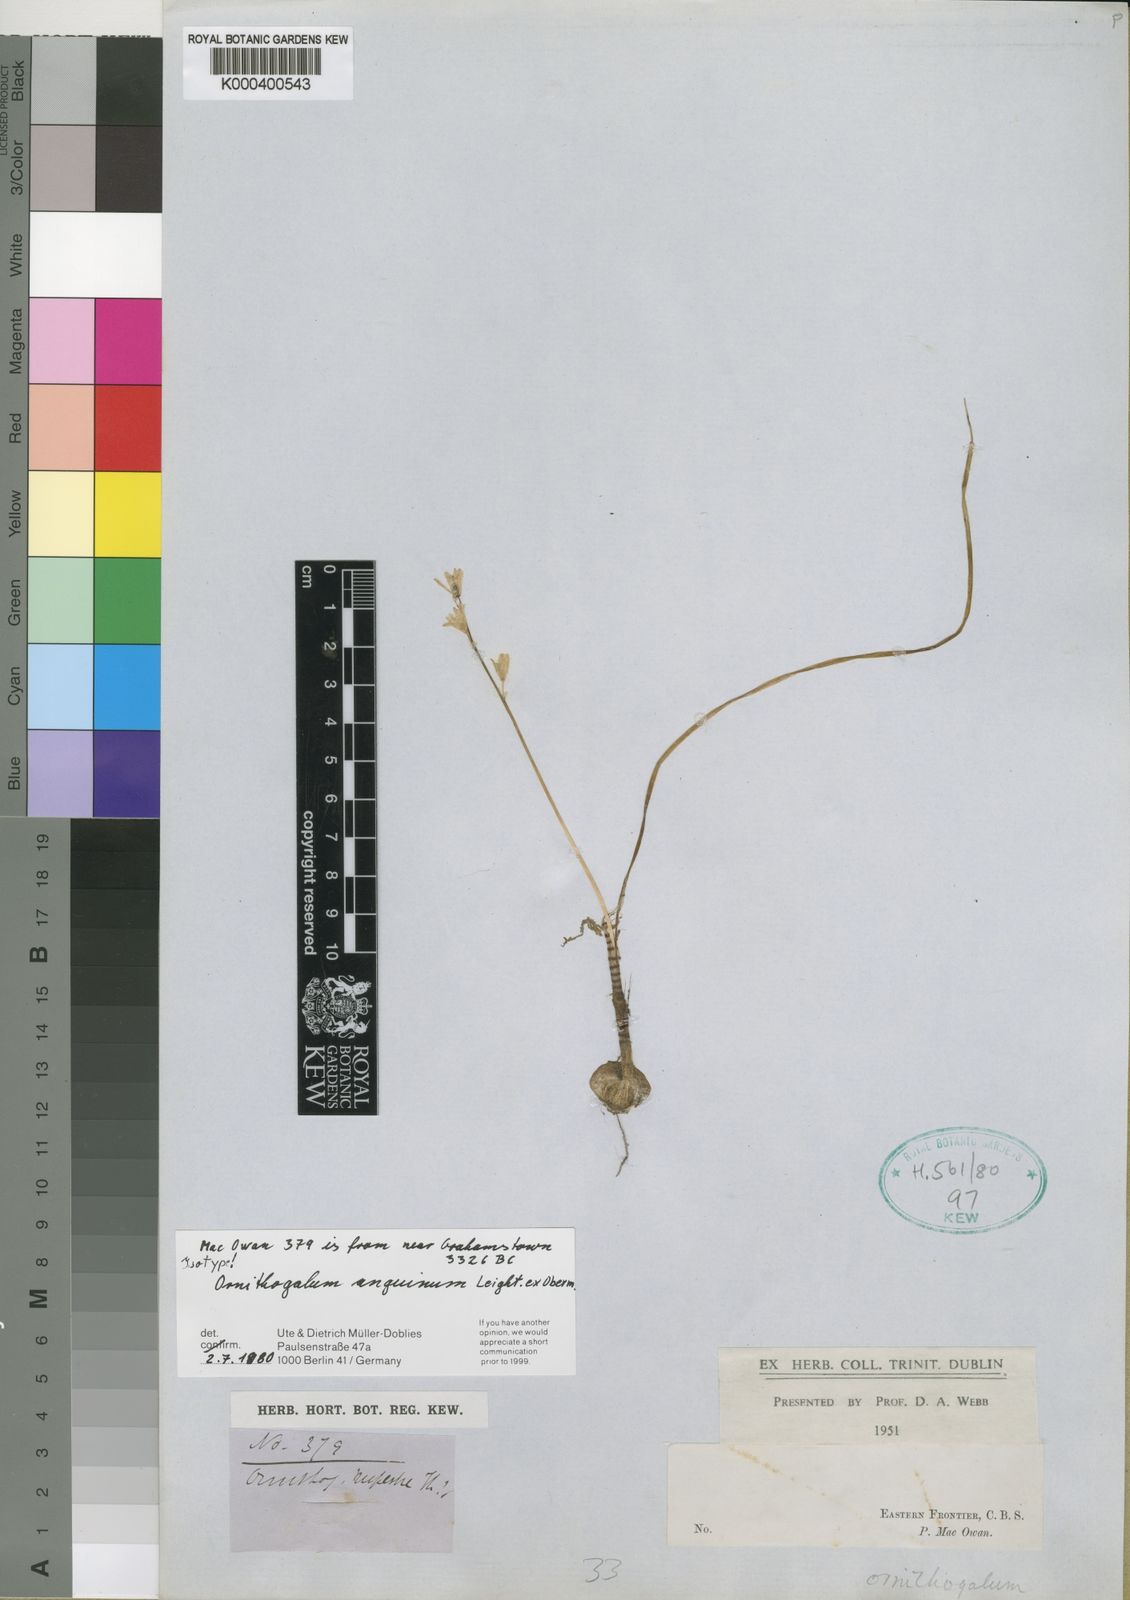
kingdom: Plantae
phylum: Tracheophyta
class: Liliopsida
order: Asparagales
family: Asparagaceae
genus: Ornithogalum
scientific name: Ornithogalum anguinum
